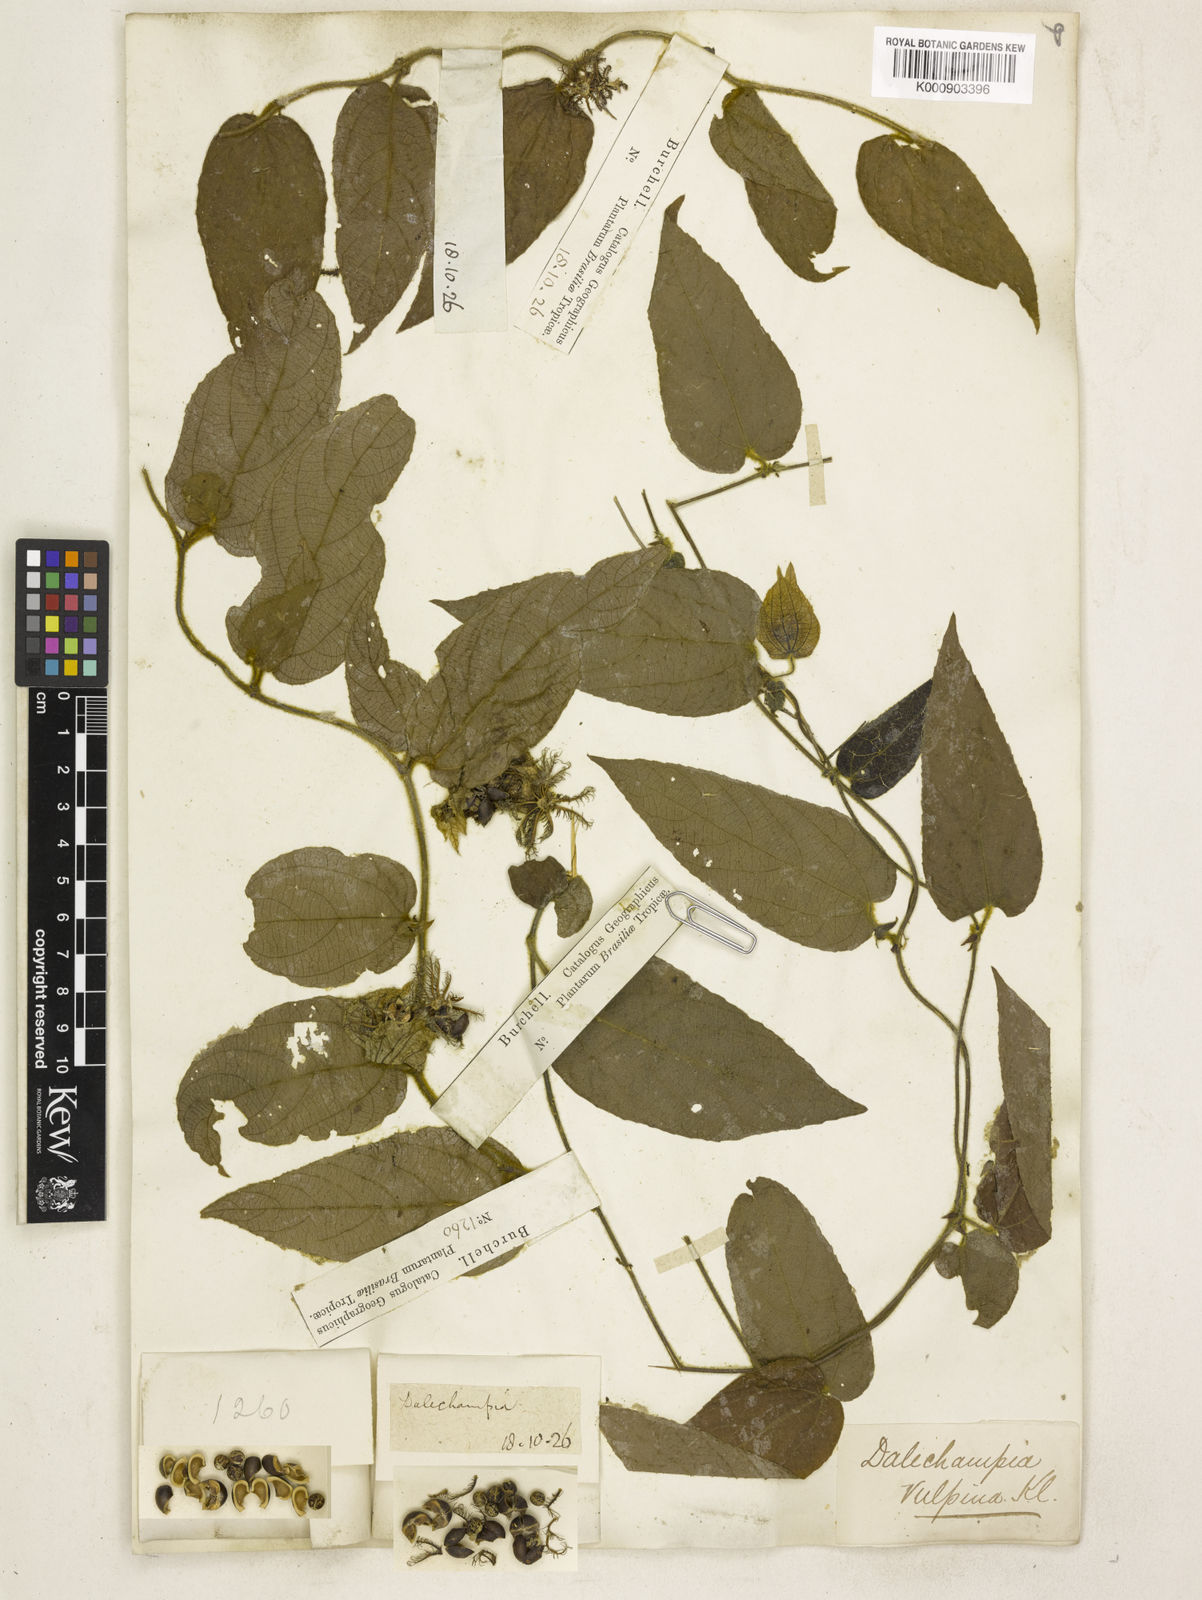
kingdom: Plantae
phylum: Tracheophyta
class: Magnoliopsida
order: Malpighiales
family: Euphorbiaceae
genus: Dalechampia
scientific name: Dalechampia leandrii
